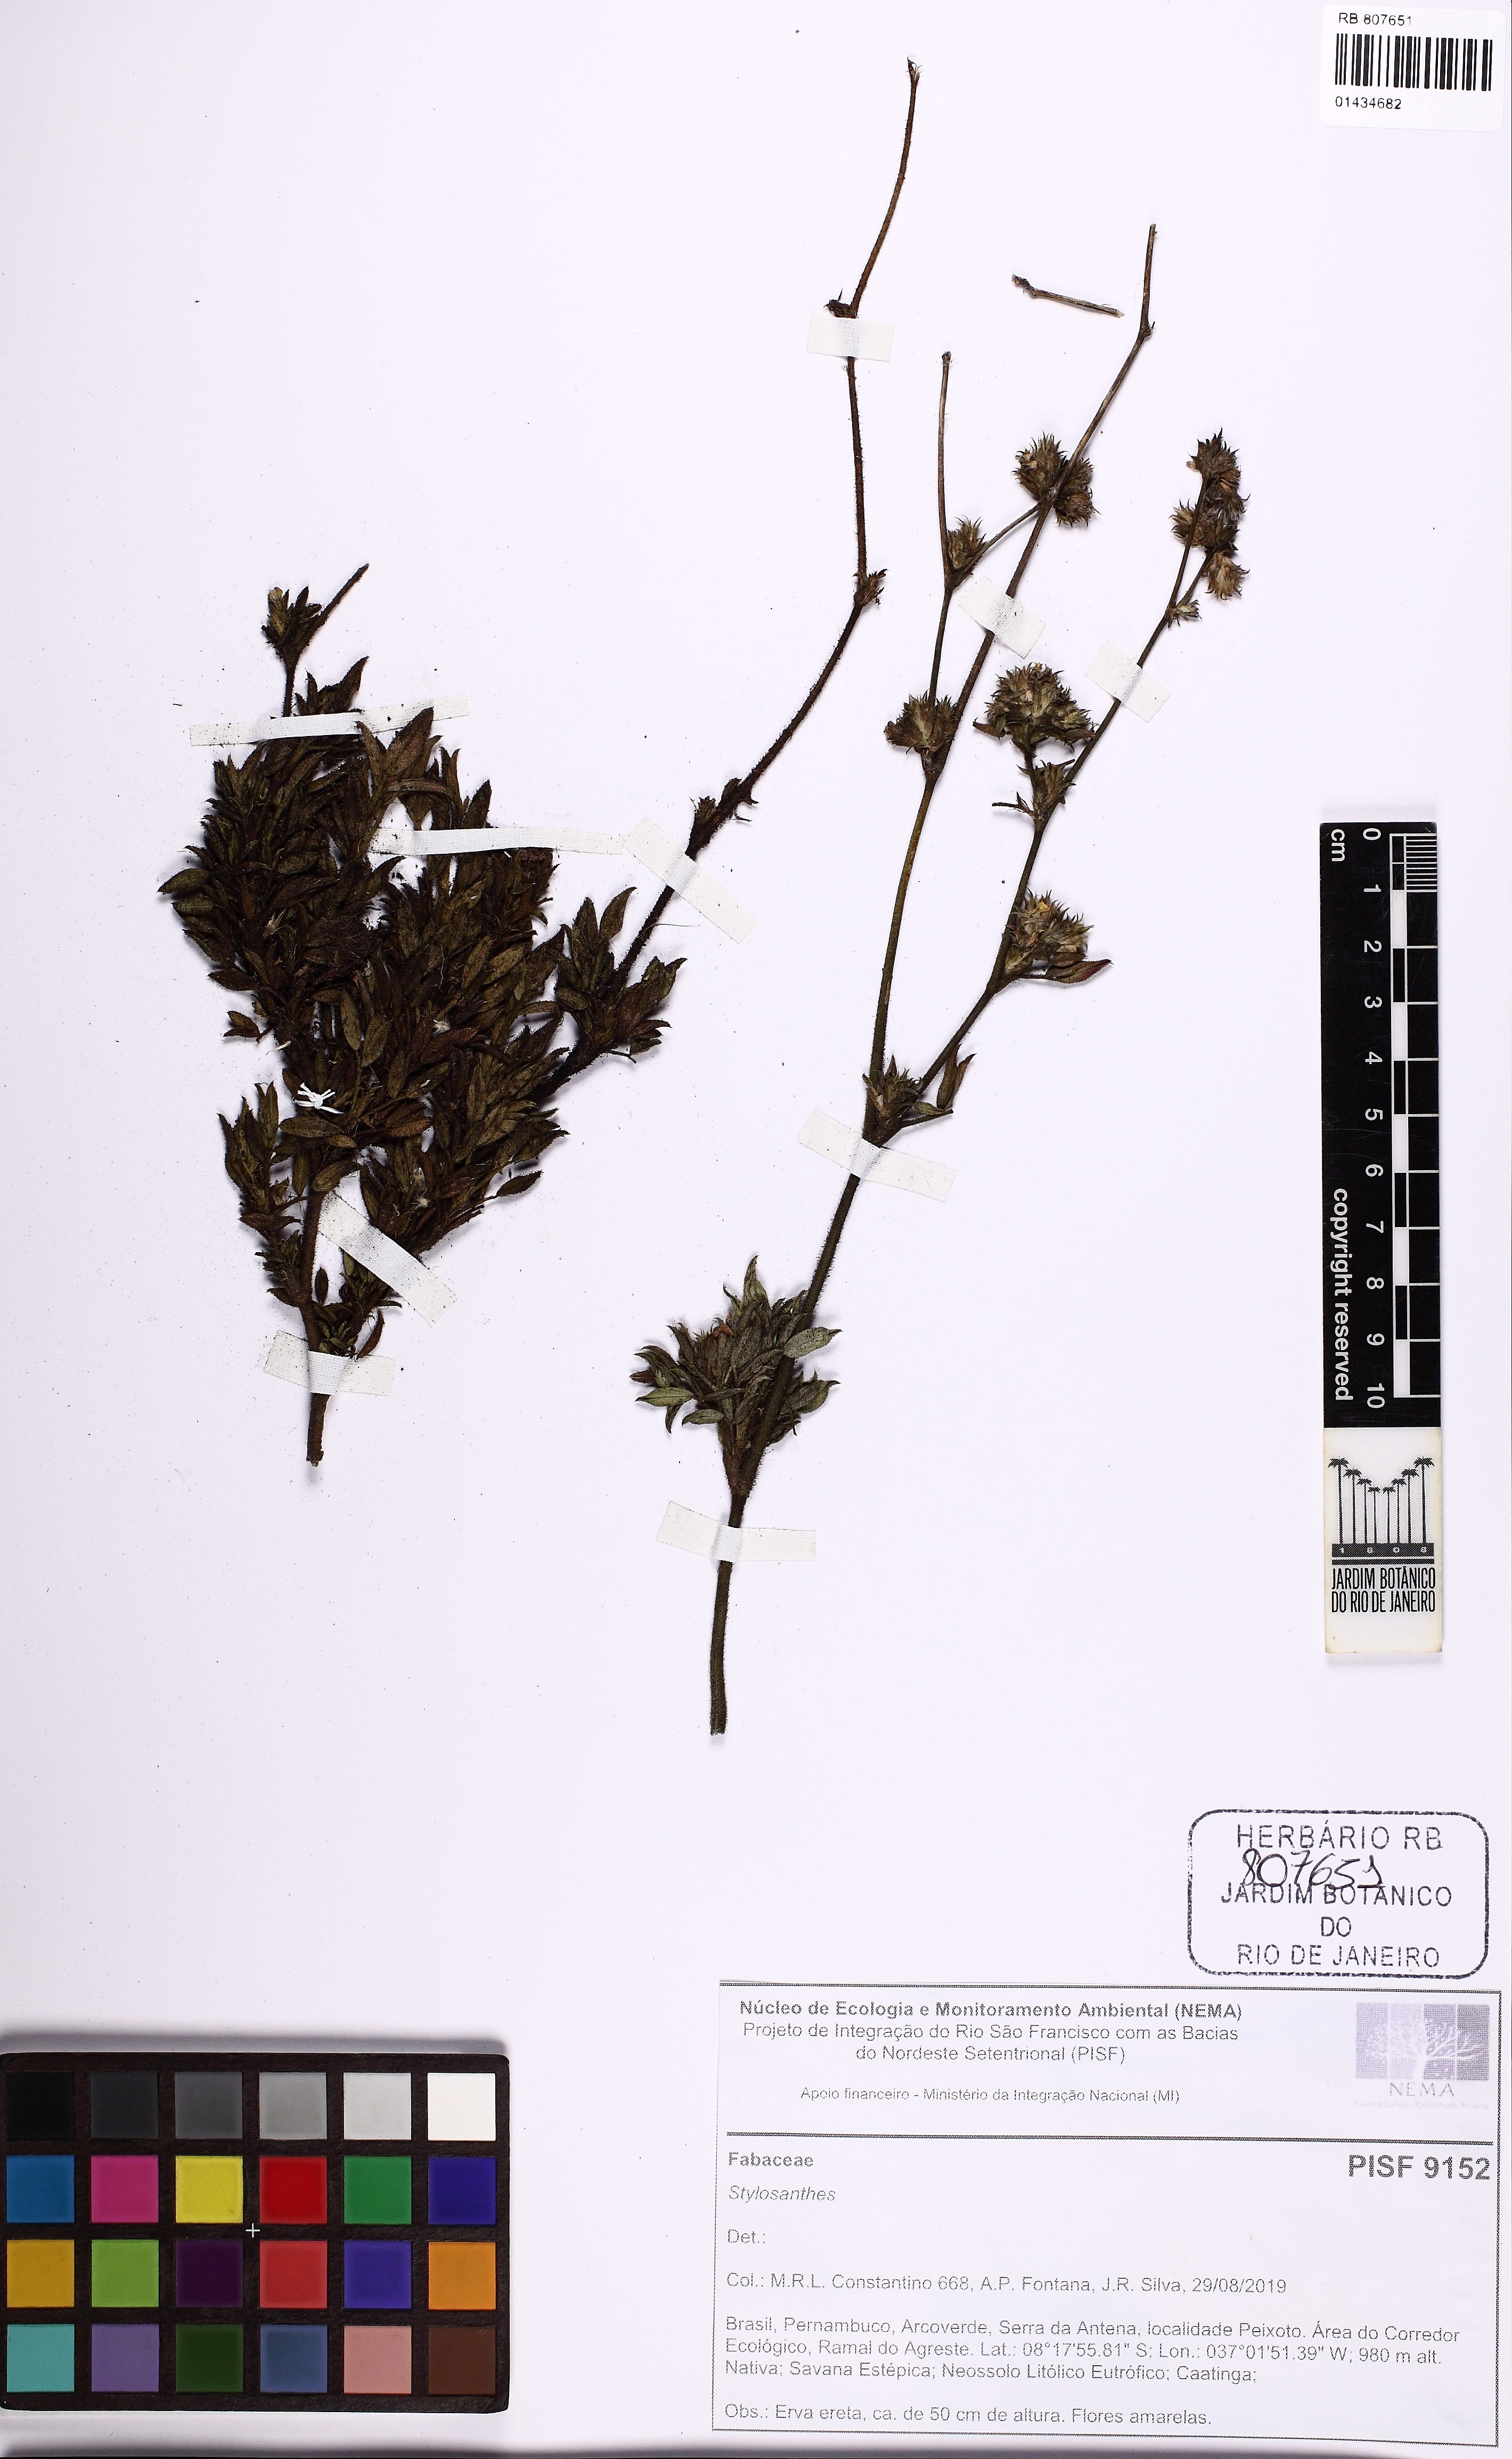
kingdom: Plantae
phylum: Tracheophyta
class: Magnoliopsida
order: Fabales
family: Fabaceae
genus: Stylosanthes
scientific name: Stylosanthes
